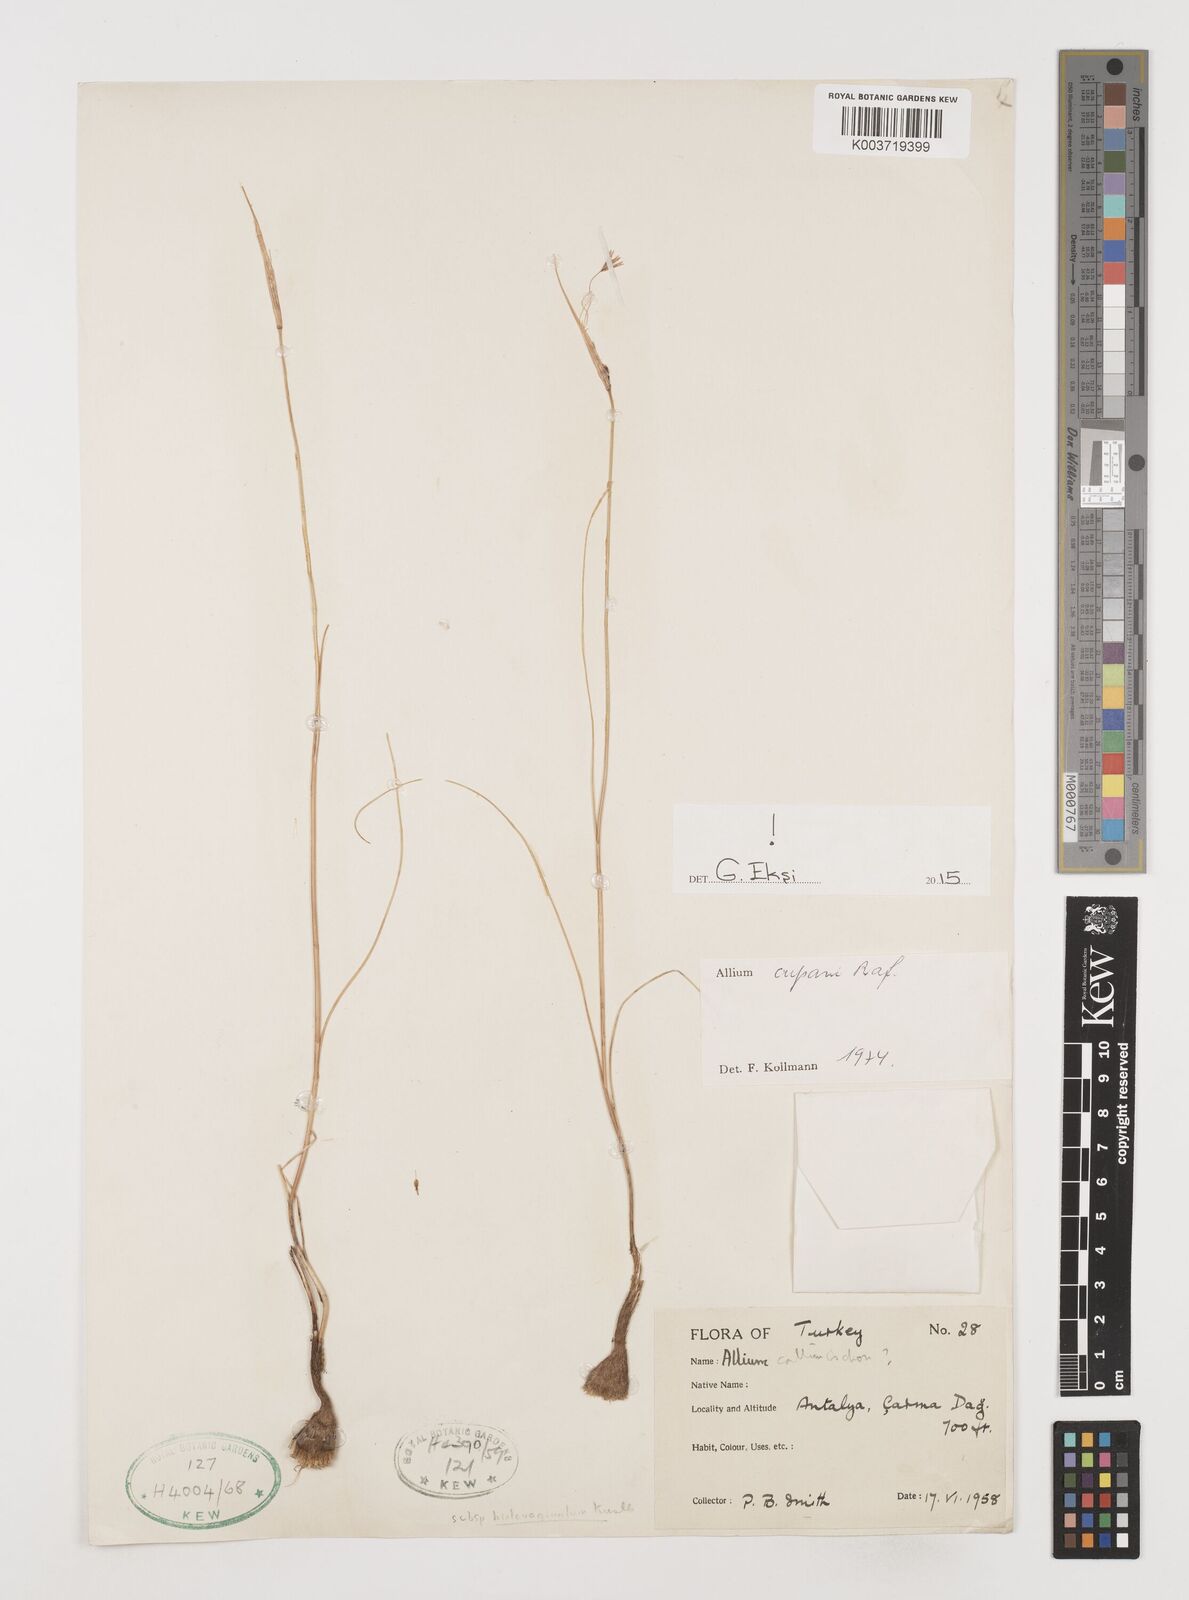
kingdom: Plantae
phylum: Tracheophyta
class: Liliopsida
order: Asparagales
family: Amaryllidaceae
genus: Allium
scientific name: Allium cupani
